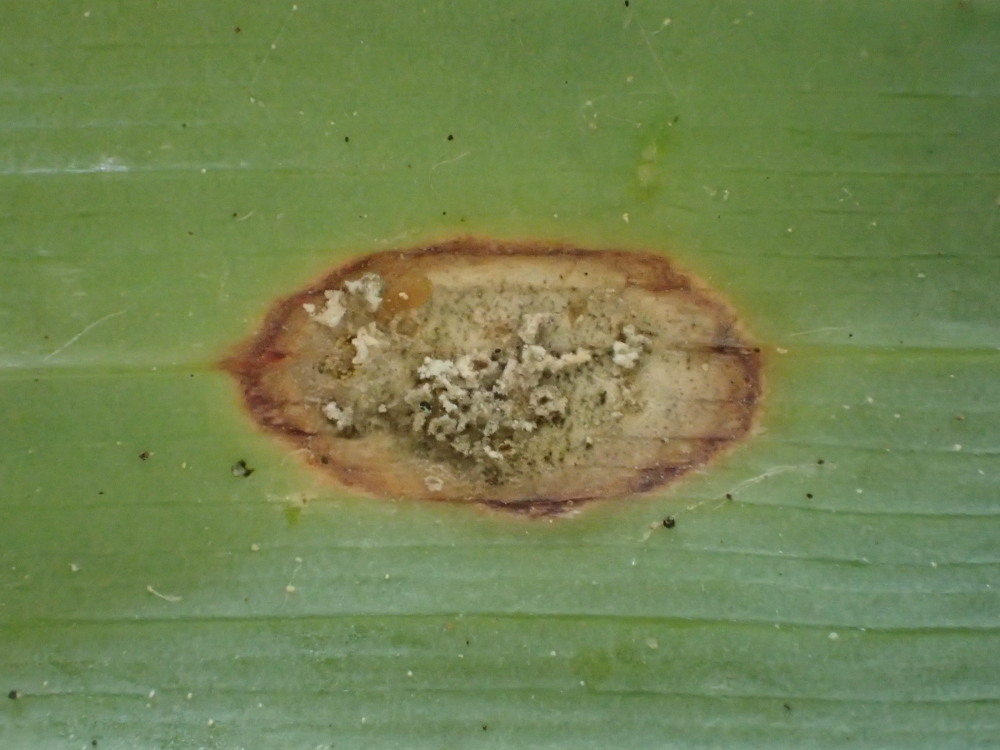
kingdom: Fungi
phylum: Basidiomycota
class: Pucciniomycetes
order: Pucciniales
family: Pucciniaceae
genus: Puccinia
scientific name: Puccinia sessilis
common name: Arum rust
